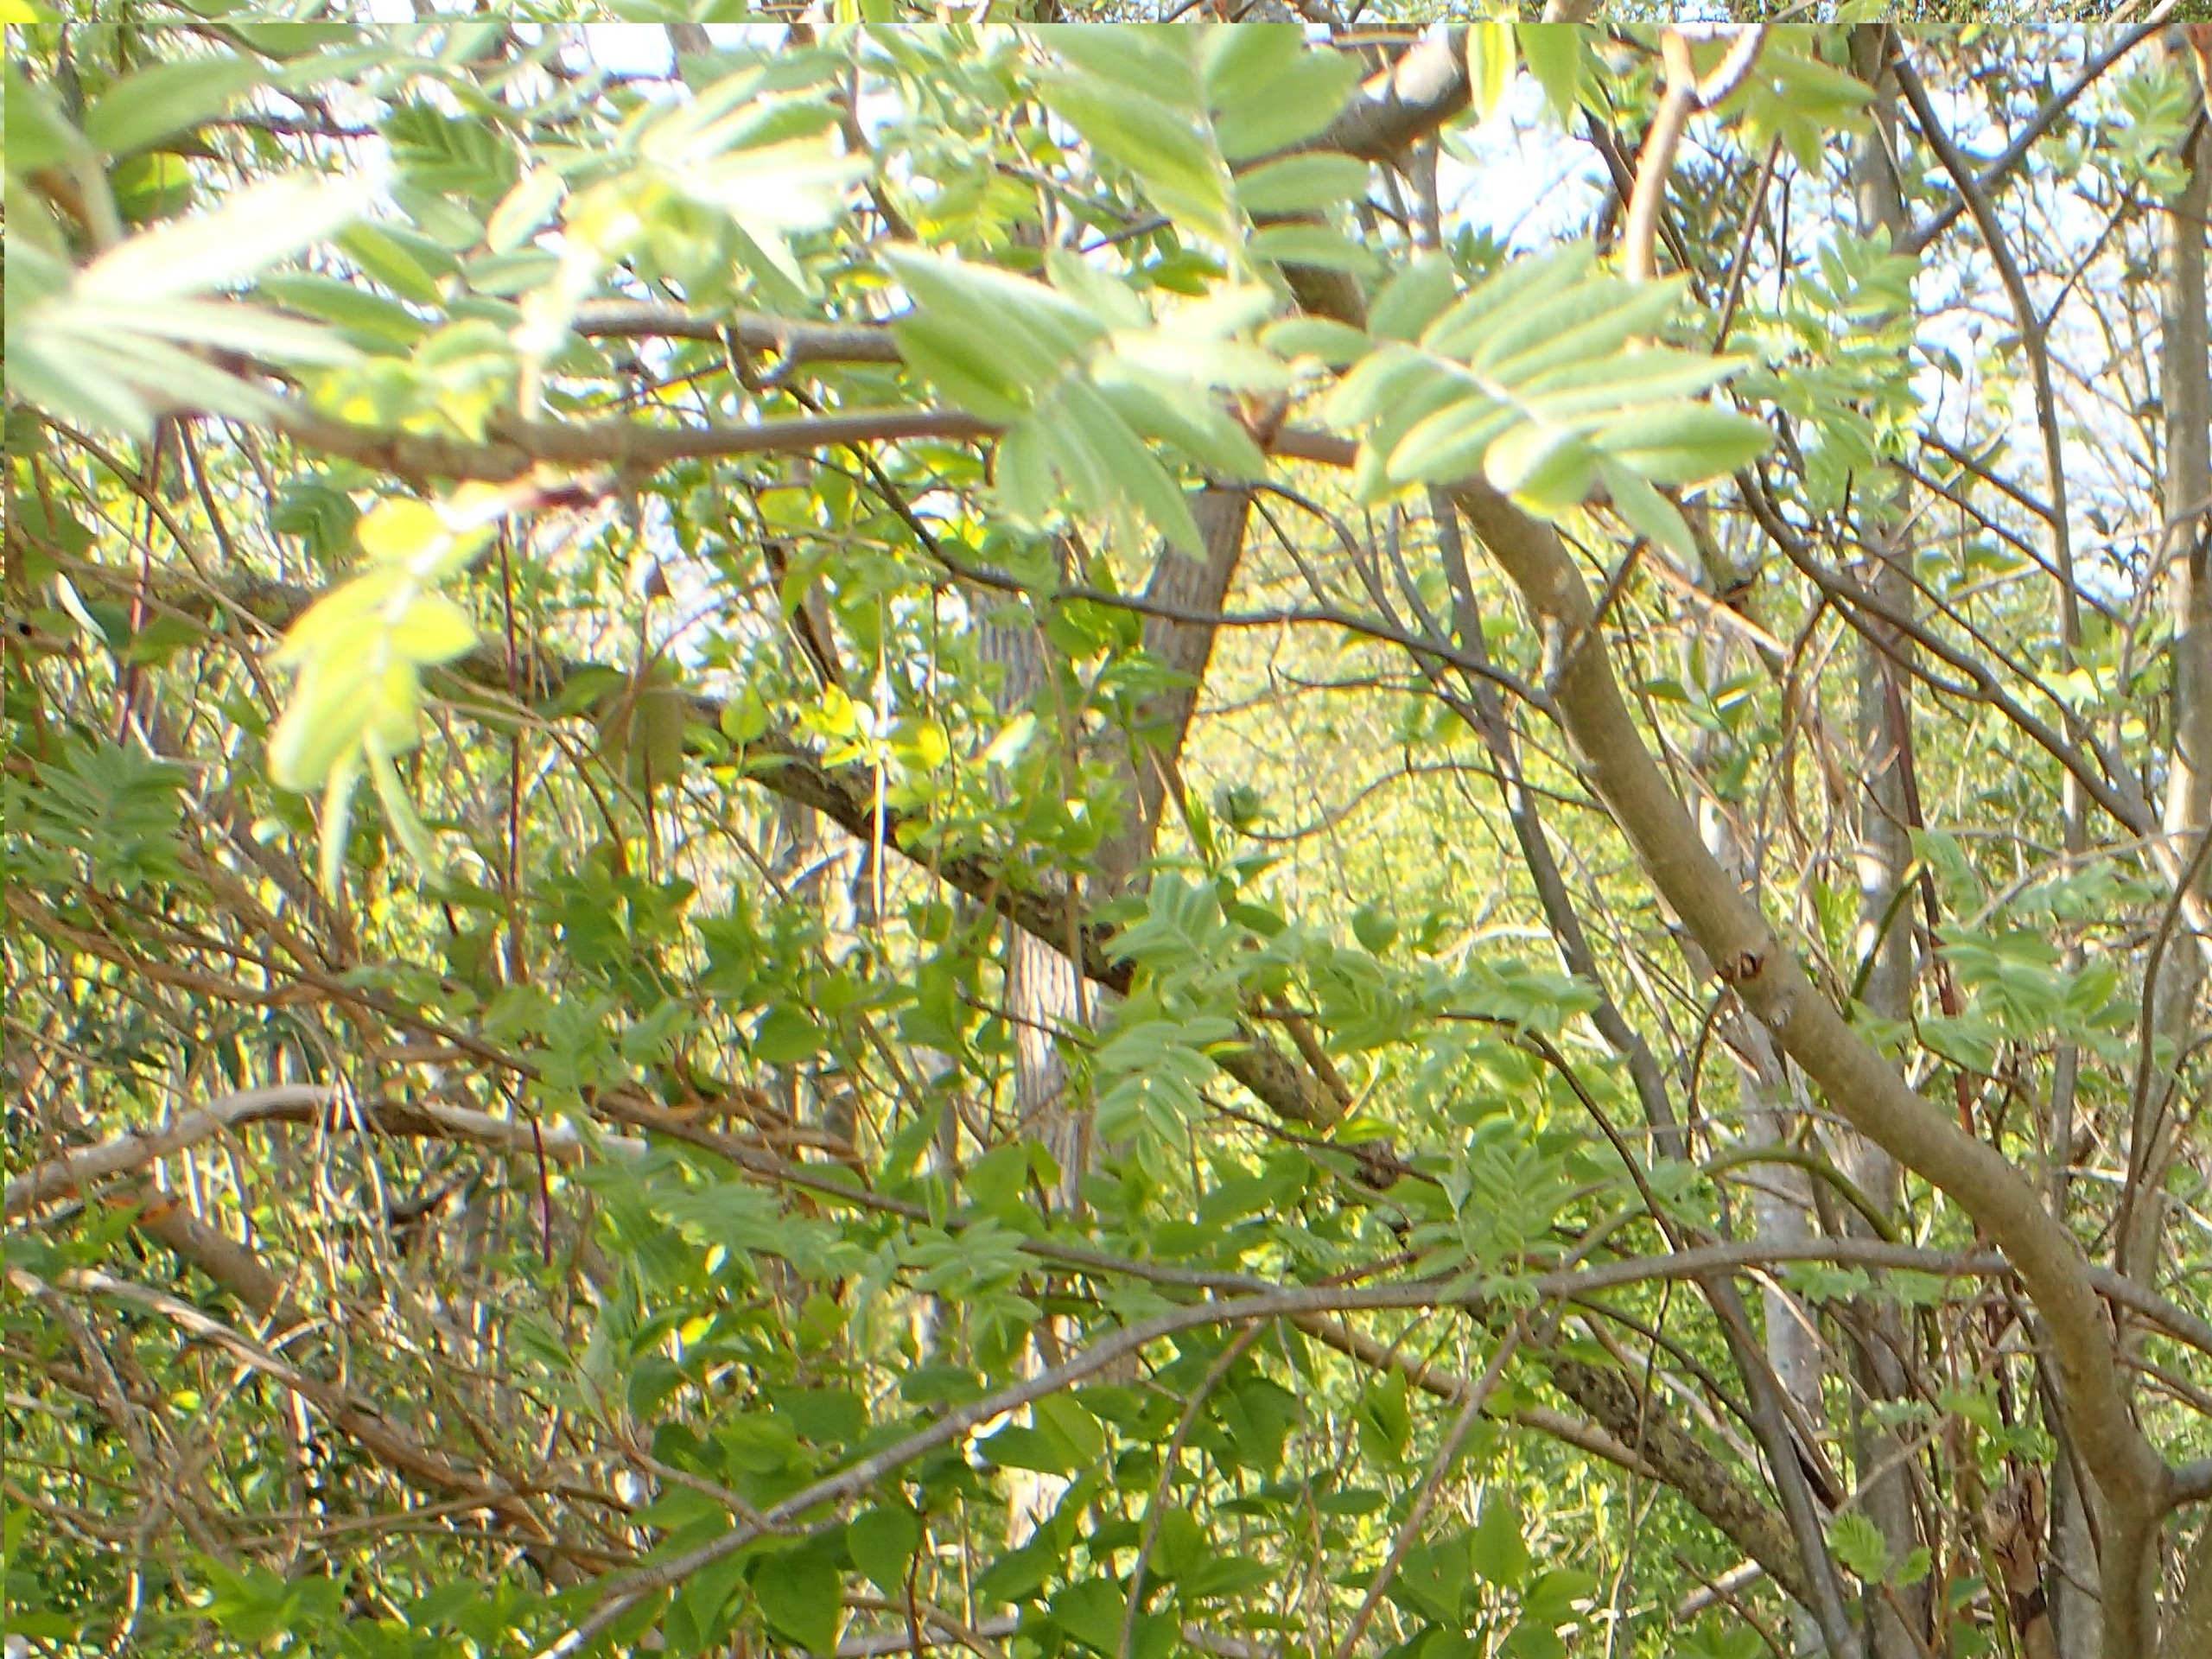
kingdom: Plantae
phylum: Tracheophyta
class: Magnoliopsida
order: Rosales
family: Rosaceae
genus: Sorbus
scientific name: Sorbus aucuparia
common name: Almindelig røn
